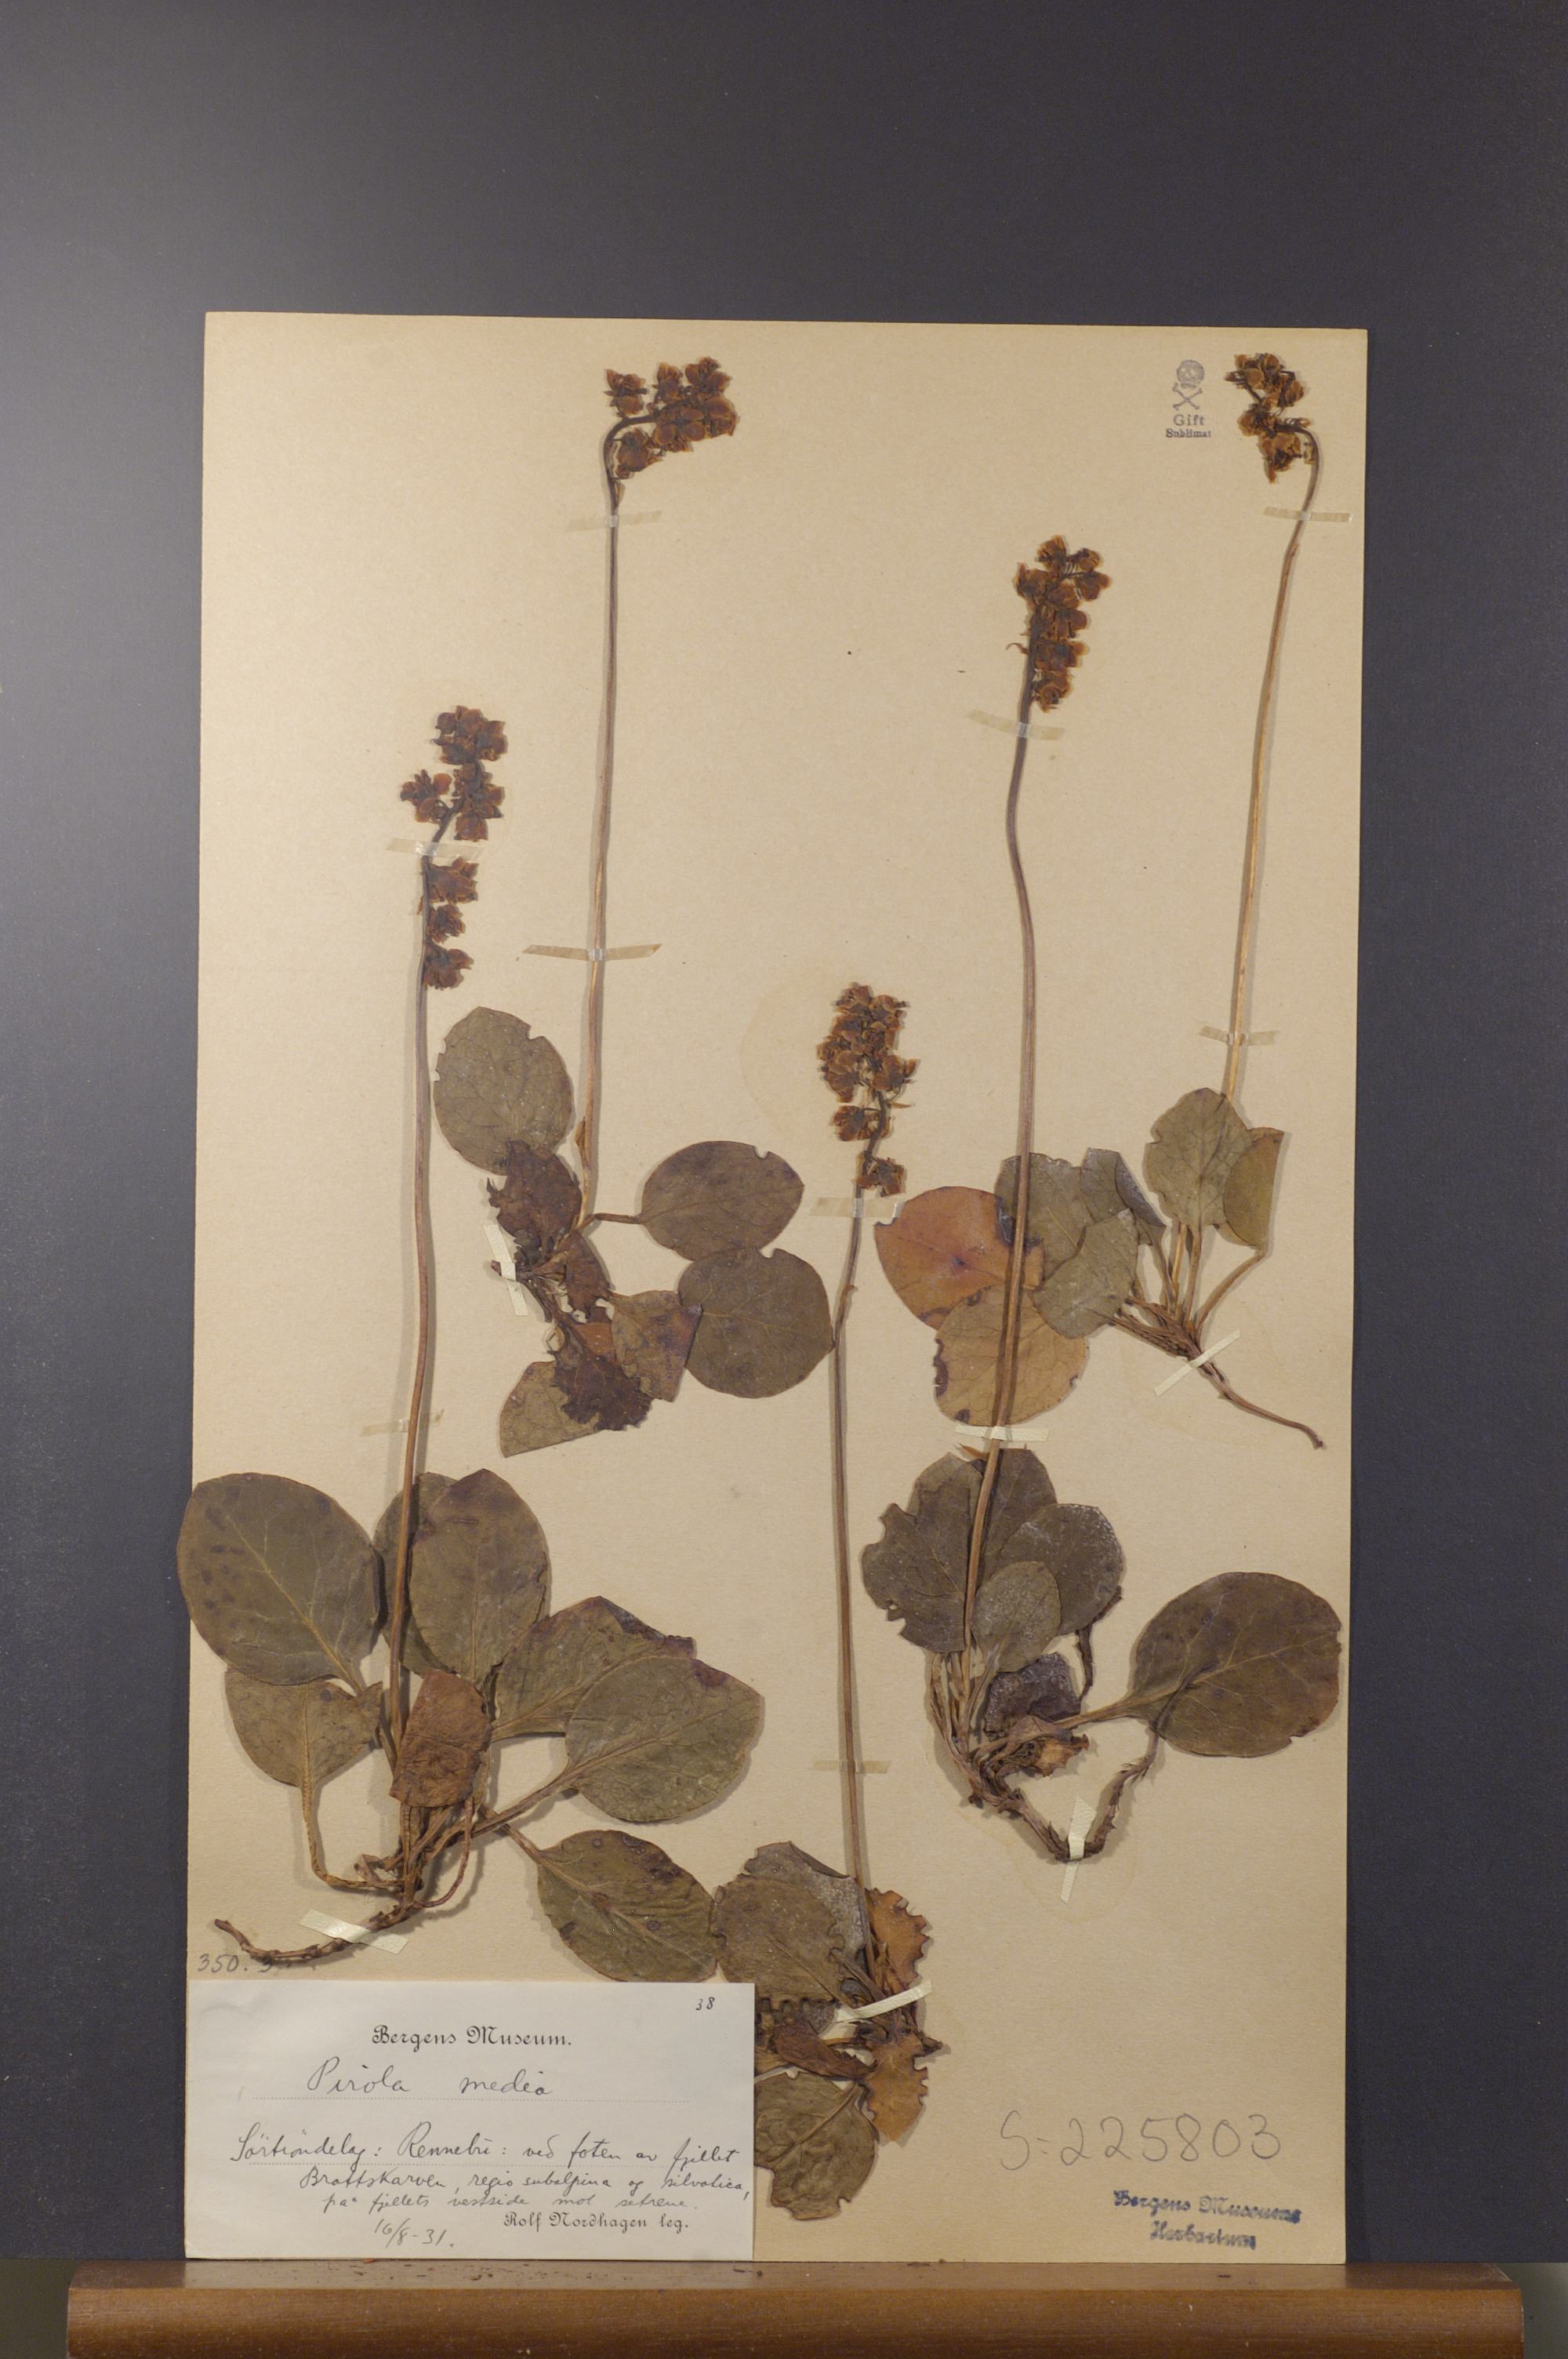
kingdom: Plantae
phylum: Tracheophyta
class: Magnoliopsida
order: Ericales
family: Ericaceae
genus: Pyrola
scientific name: Pyrola media
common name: Intermediate wintergreen
